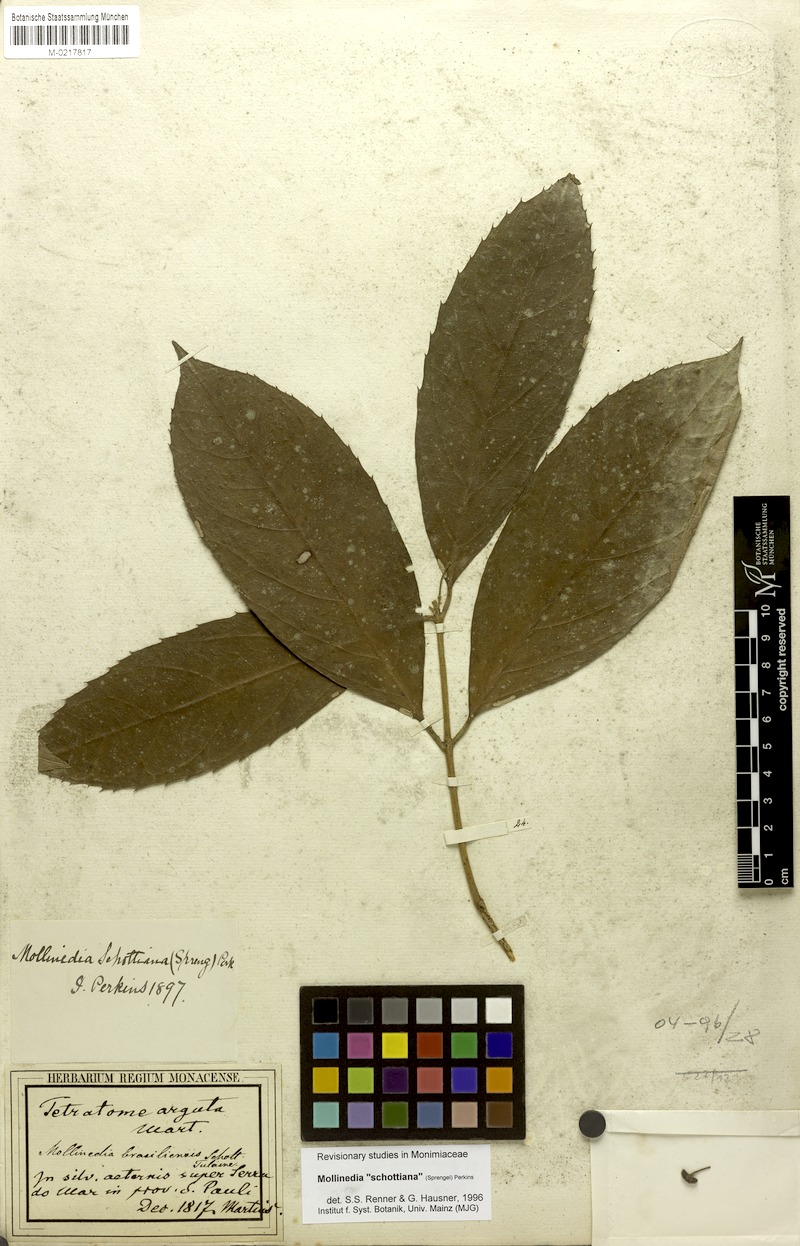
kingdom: Plantae
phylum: Tracheophyta
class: Magnoliopsida
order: Laurales
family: Monimiaceae
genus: Mollinedia
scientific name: Mollinedia umbellata
